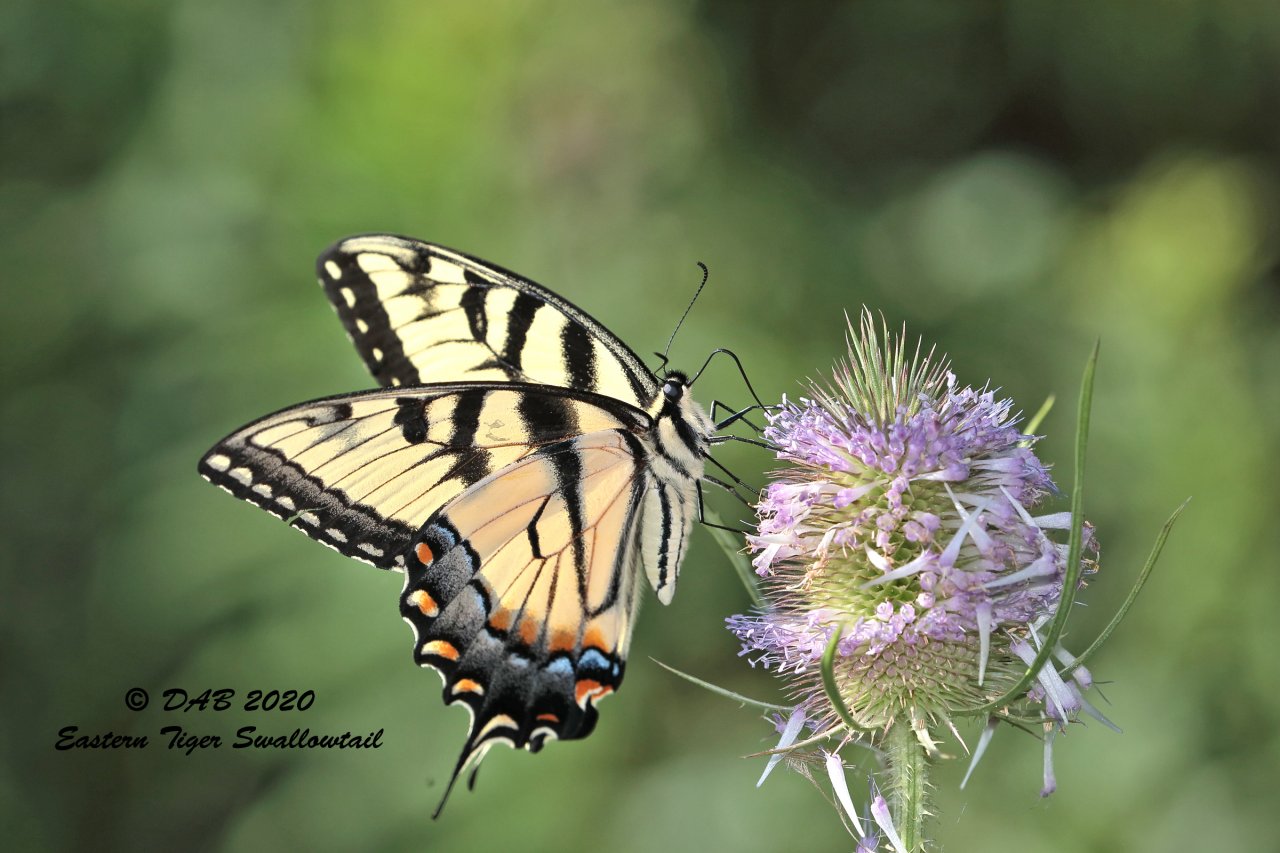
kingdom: Animalia
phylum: Arthropoda
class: Insecta
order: Lepidoptera
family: Papilionidae
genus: Pterourus
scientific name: Pterourus glaucus
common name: Eastern Tiger Swallowtail
